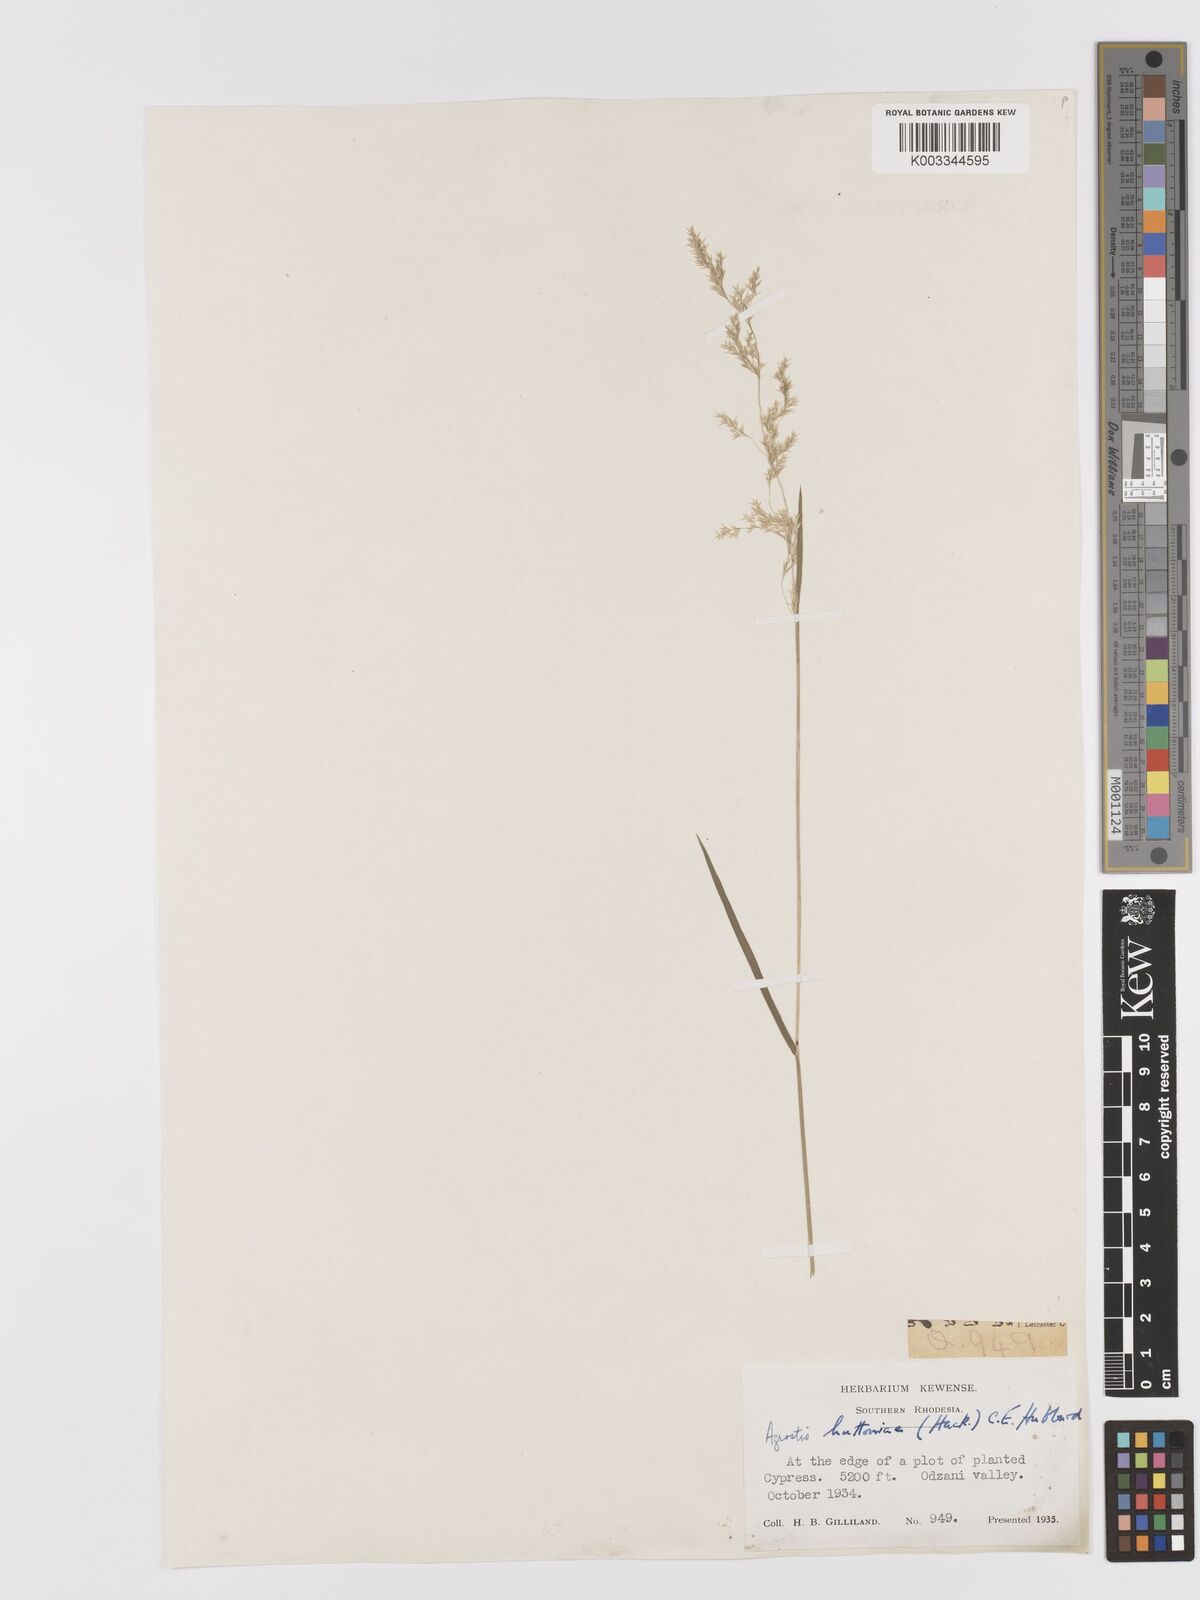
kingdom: Plantae
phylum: Tracheophyta
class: Liliopsida
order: Poales
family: Poaceae
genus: Lachnagrostis
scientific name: Lachnagrostis lachnantha
